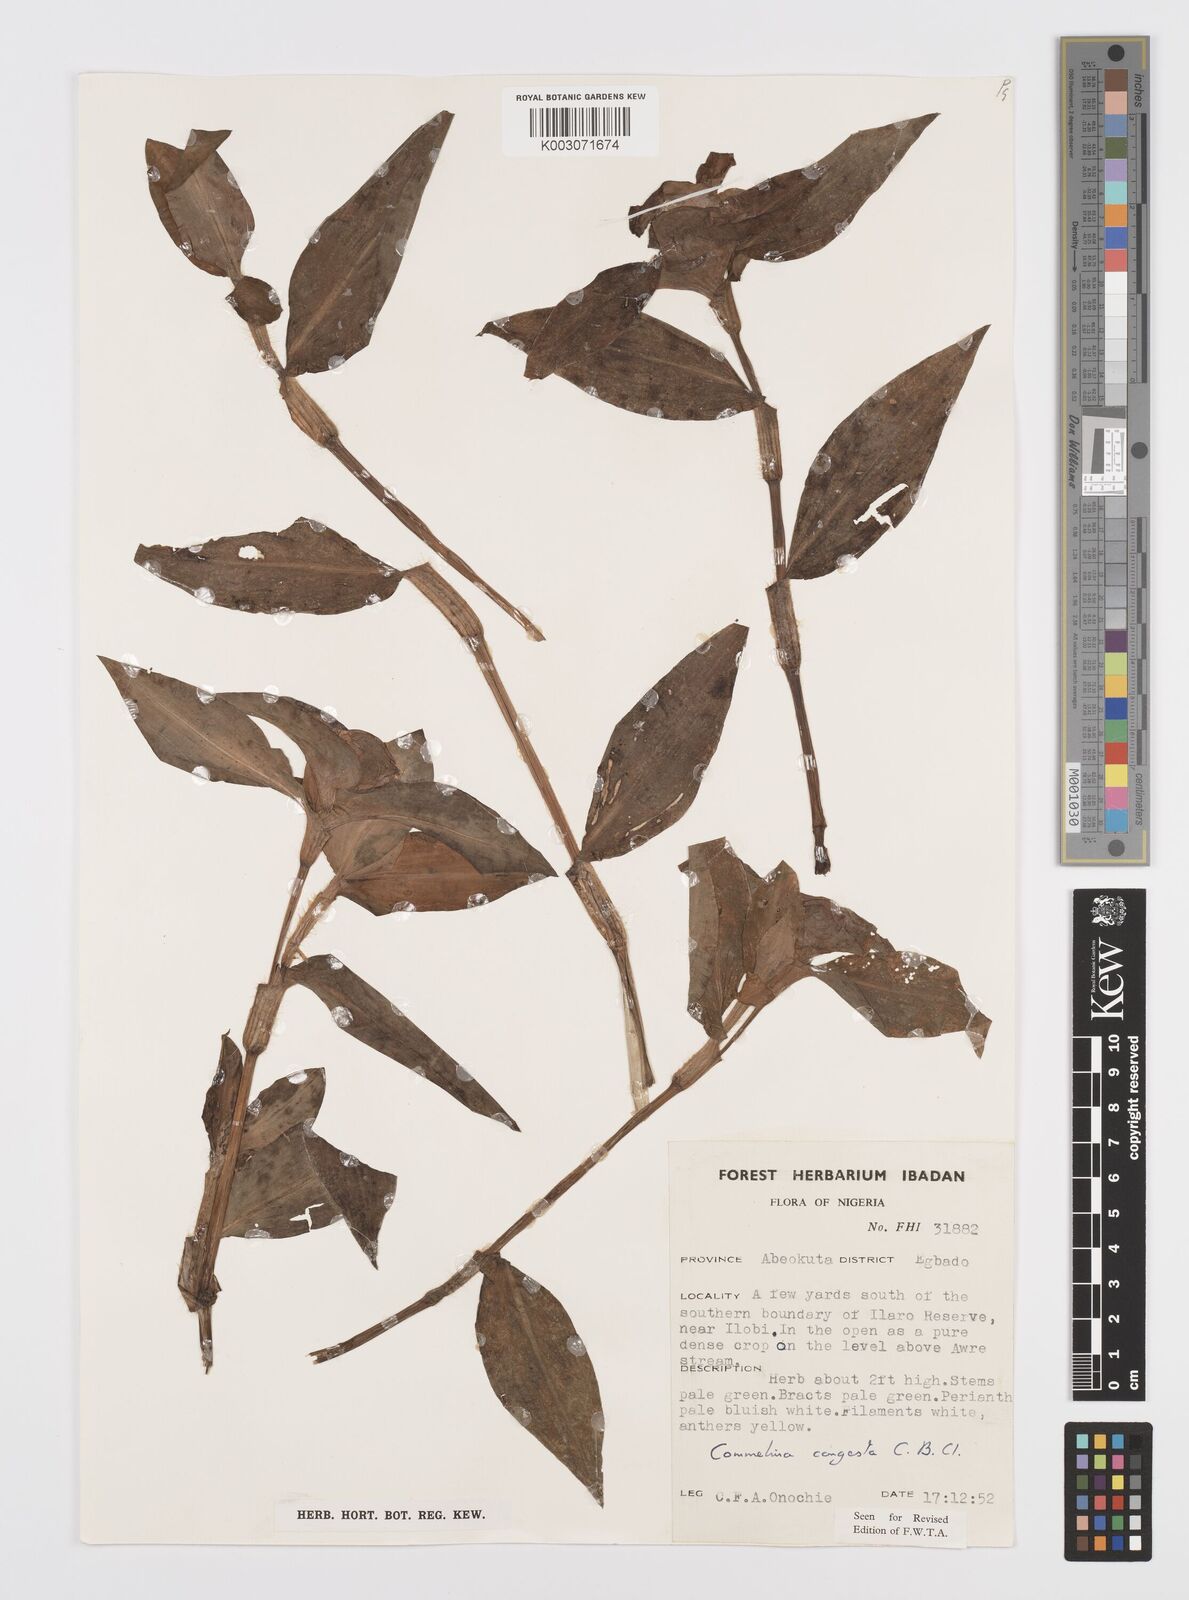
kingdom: Plantae
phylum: Tracheophyta
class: Liliopsida
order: Commelinales
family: Commelinaceae
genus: Commelina
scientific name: Commelina congesta
